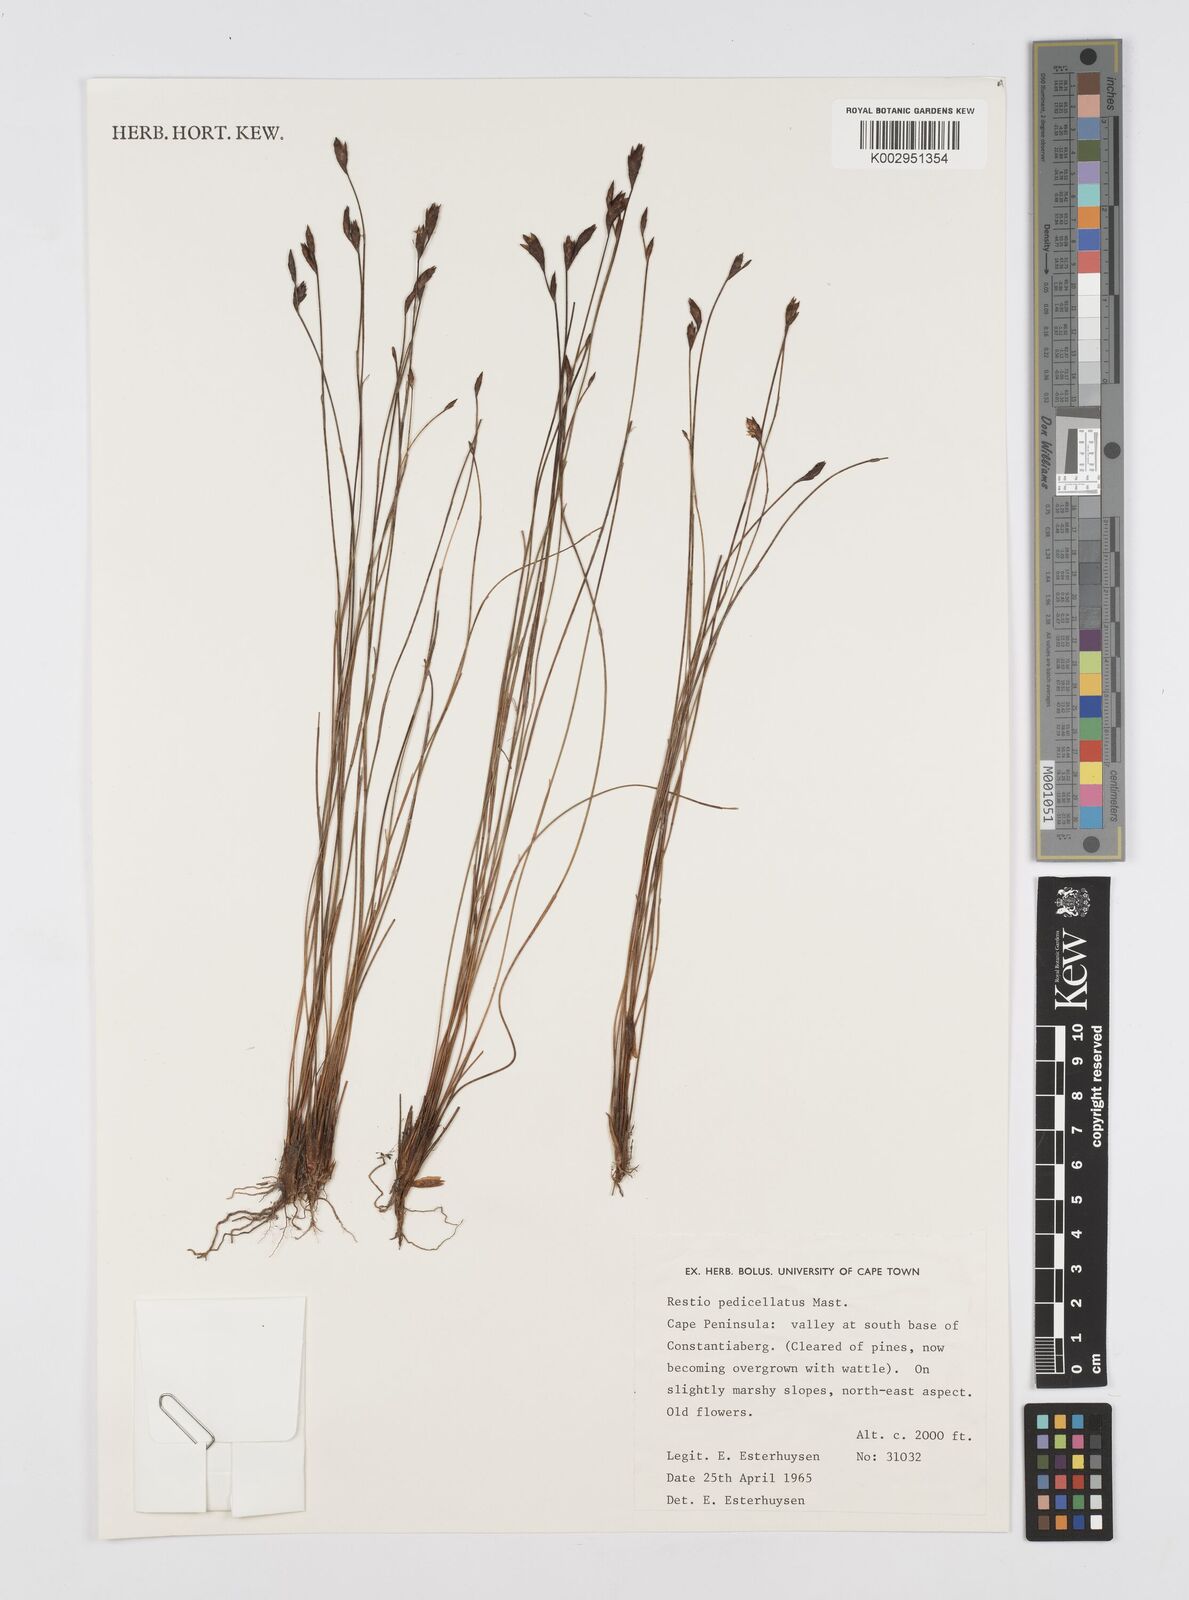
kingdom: Plantae
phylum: Tracheophyta
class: Liliopsida
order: Poales
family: Restionaceae
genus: Restio
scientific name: Restio pedicellatus
